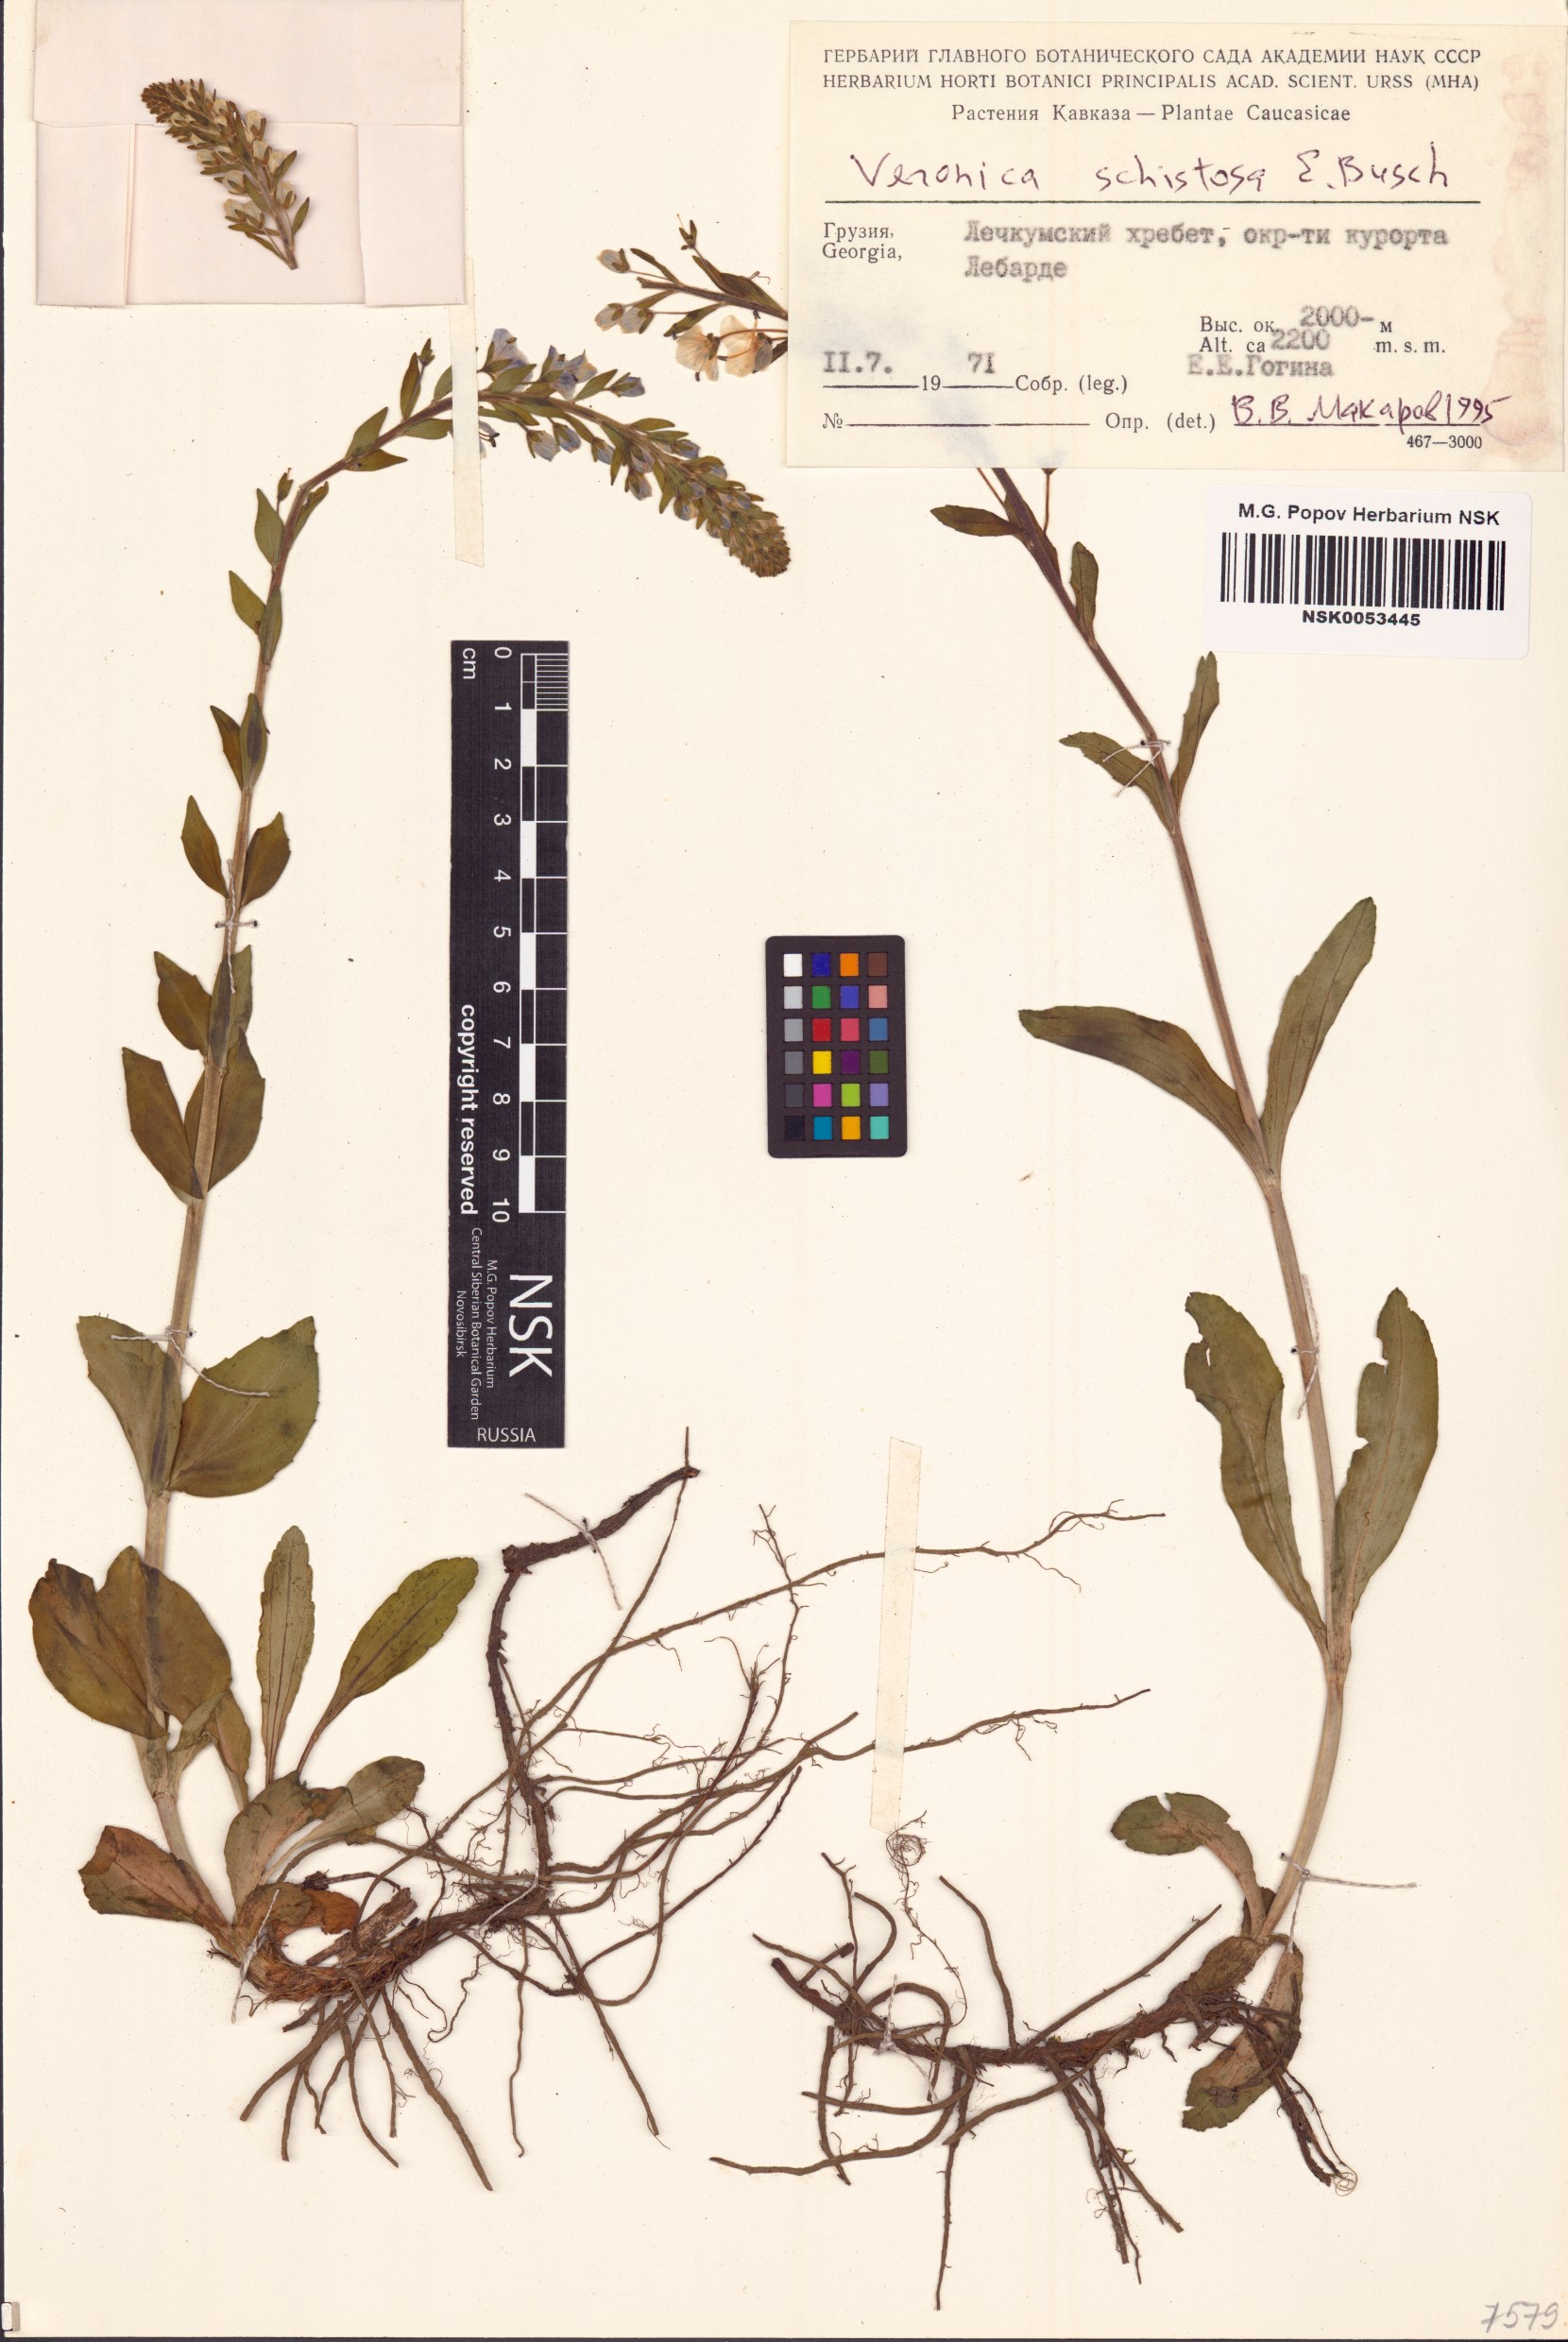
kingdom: Plantae
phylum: Tracheophyta
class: Magnoliopsida
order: Lamiales
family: Plantaginaceae
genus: Veronica
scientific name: Veronica schistosa
